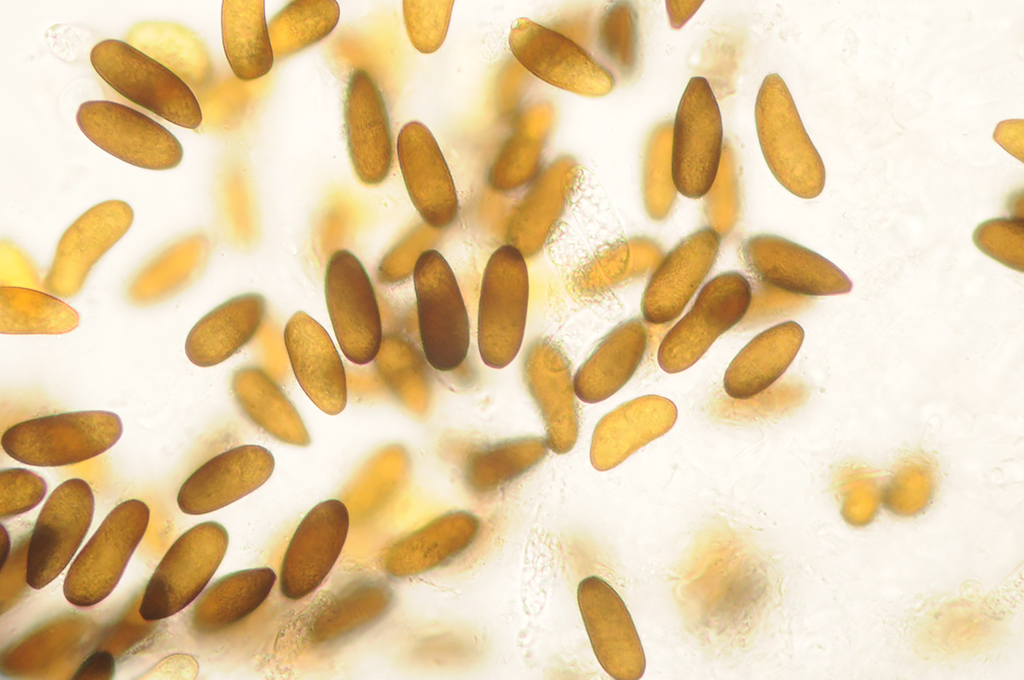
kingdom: Fungi
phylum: Ascomycota
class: Dothideomycetes
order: Botryosphaeriales
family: Botryosphaeriaceae
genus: Sphaeropsis
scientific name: Sphaeropsis sapinea
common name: Sphaeropsis blight
